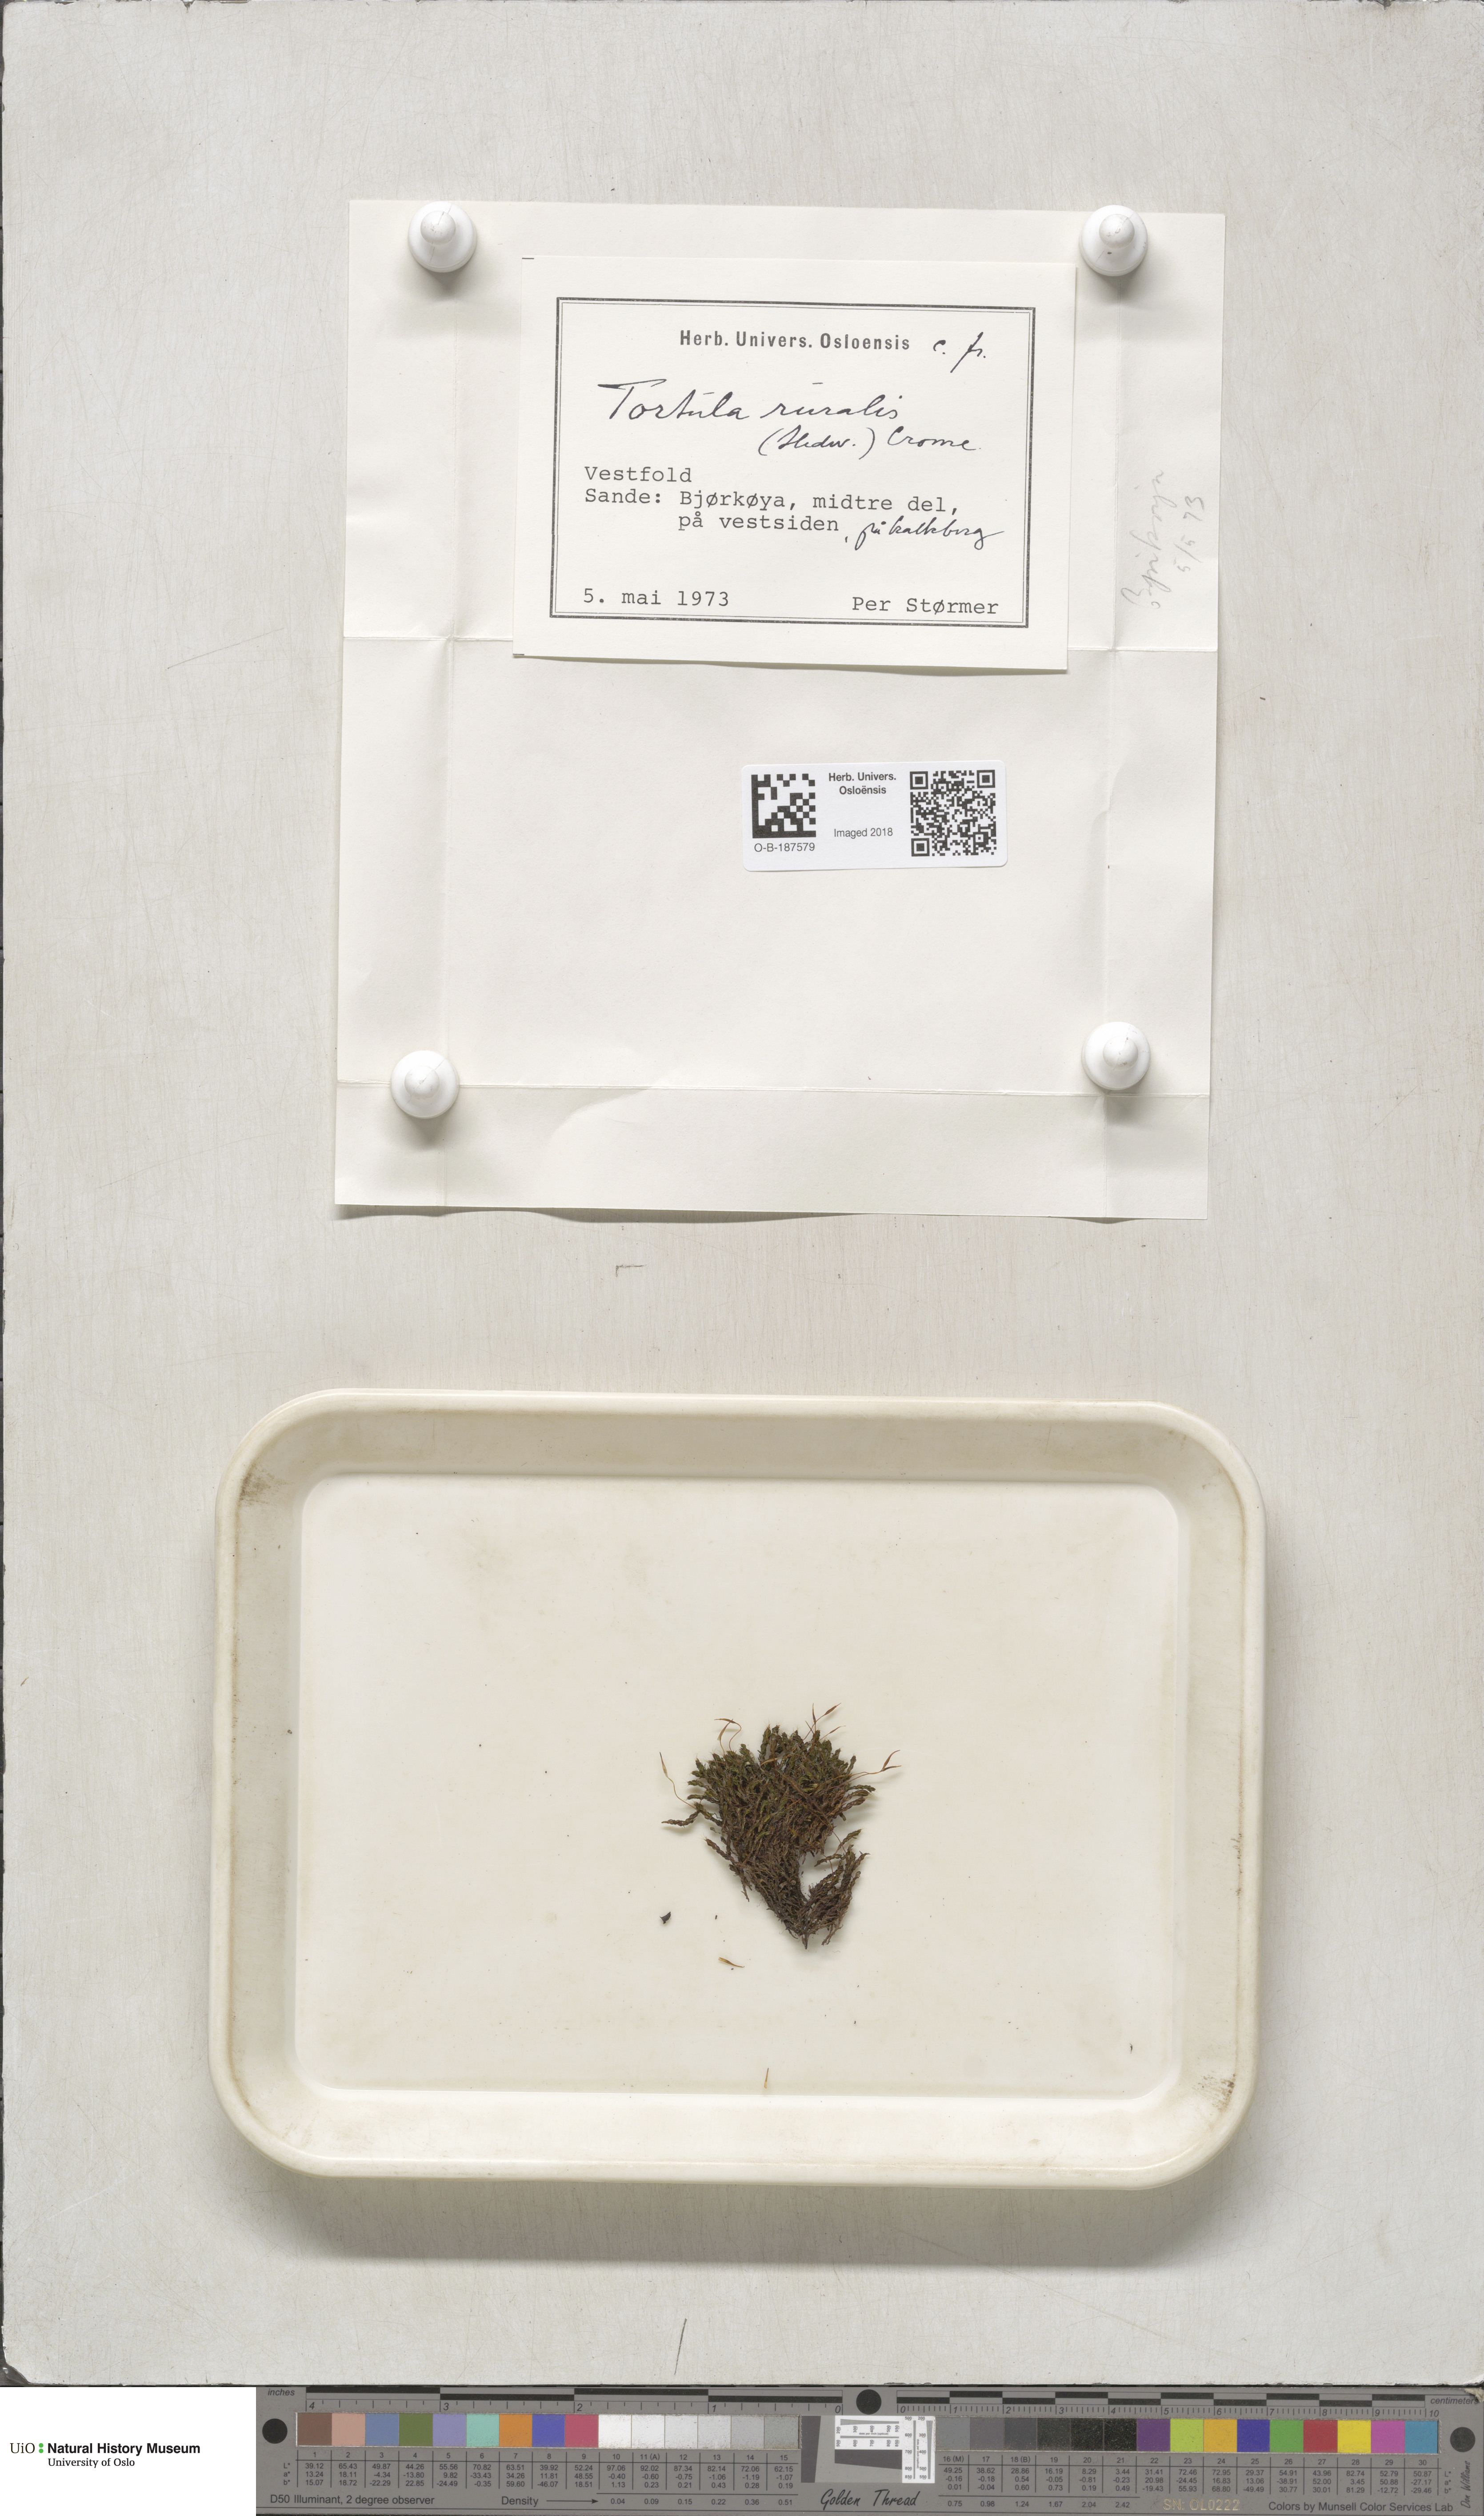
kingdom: Plantae
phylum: Bryophyta
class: Bryopsida
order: Pottiales
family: Pottiaceae
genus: Syntrichia
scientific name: Syntrichia ruralis
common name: Sidewalk screw moss
